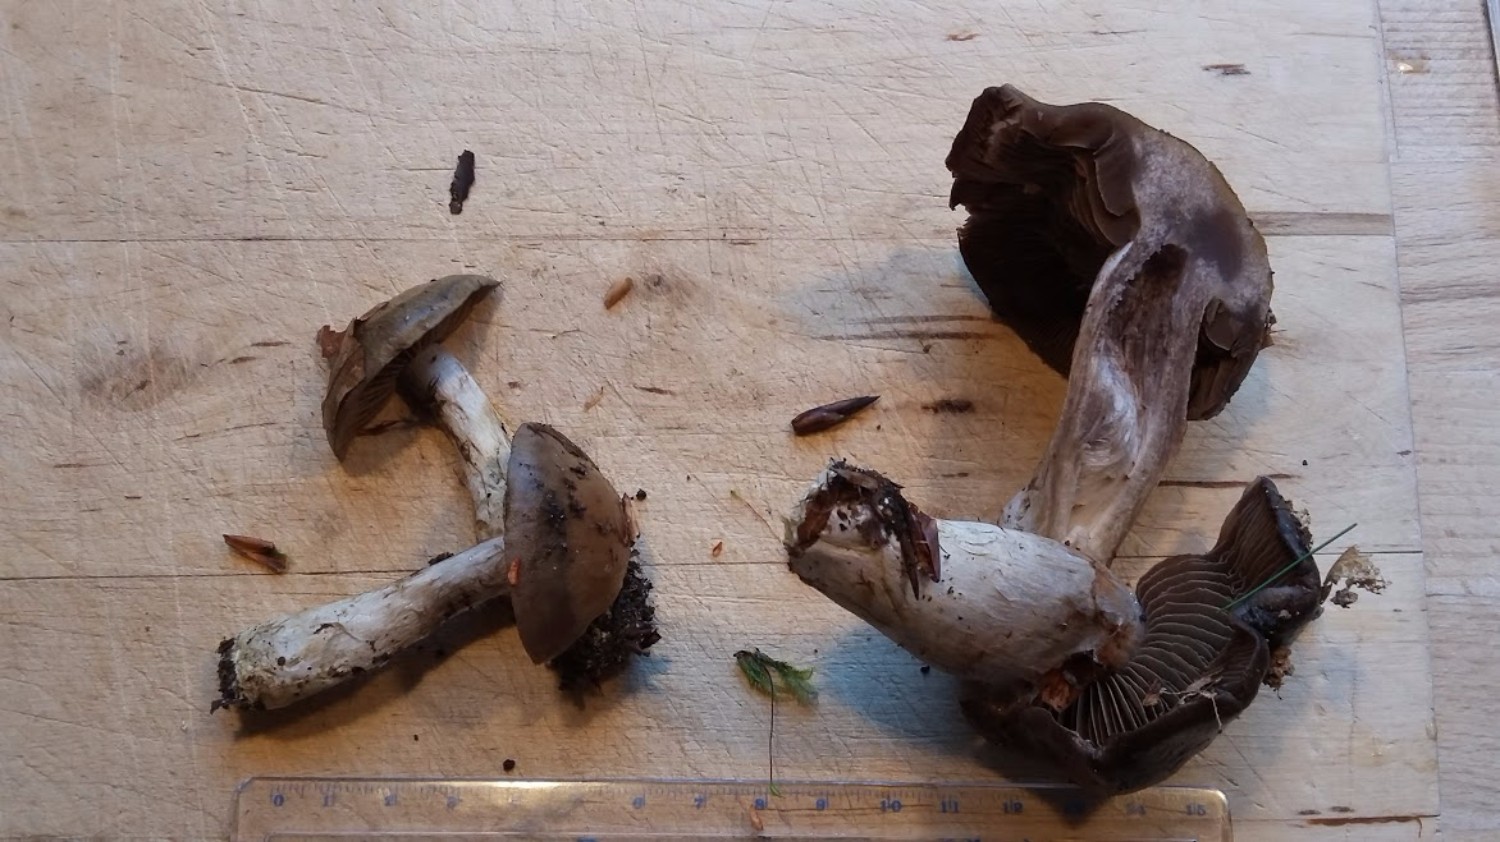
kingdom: Fungi
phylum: Basidiomycota
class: Agaricomycetes
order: Agaricales
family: Cortinariaceae
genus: Cortinarius
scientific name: Cortinarius
